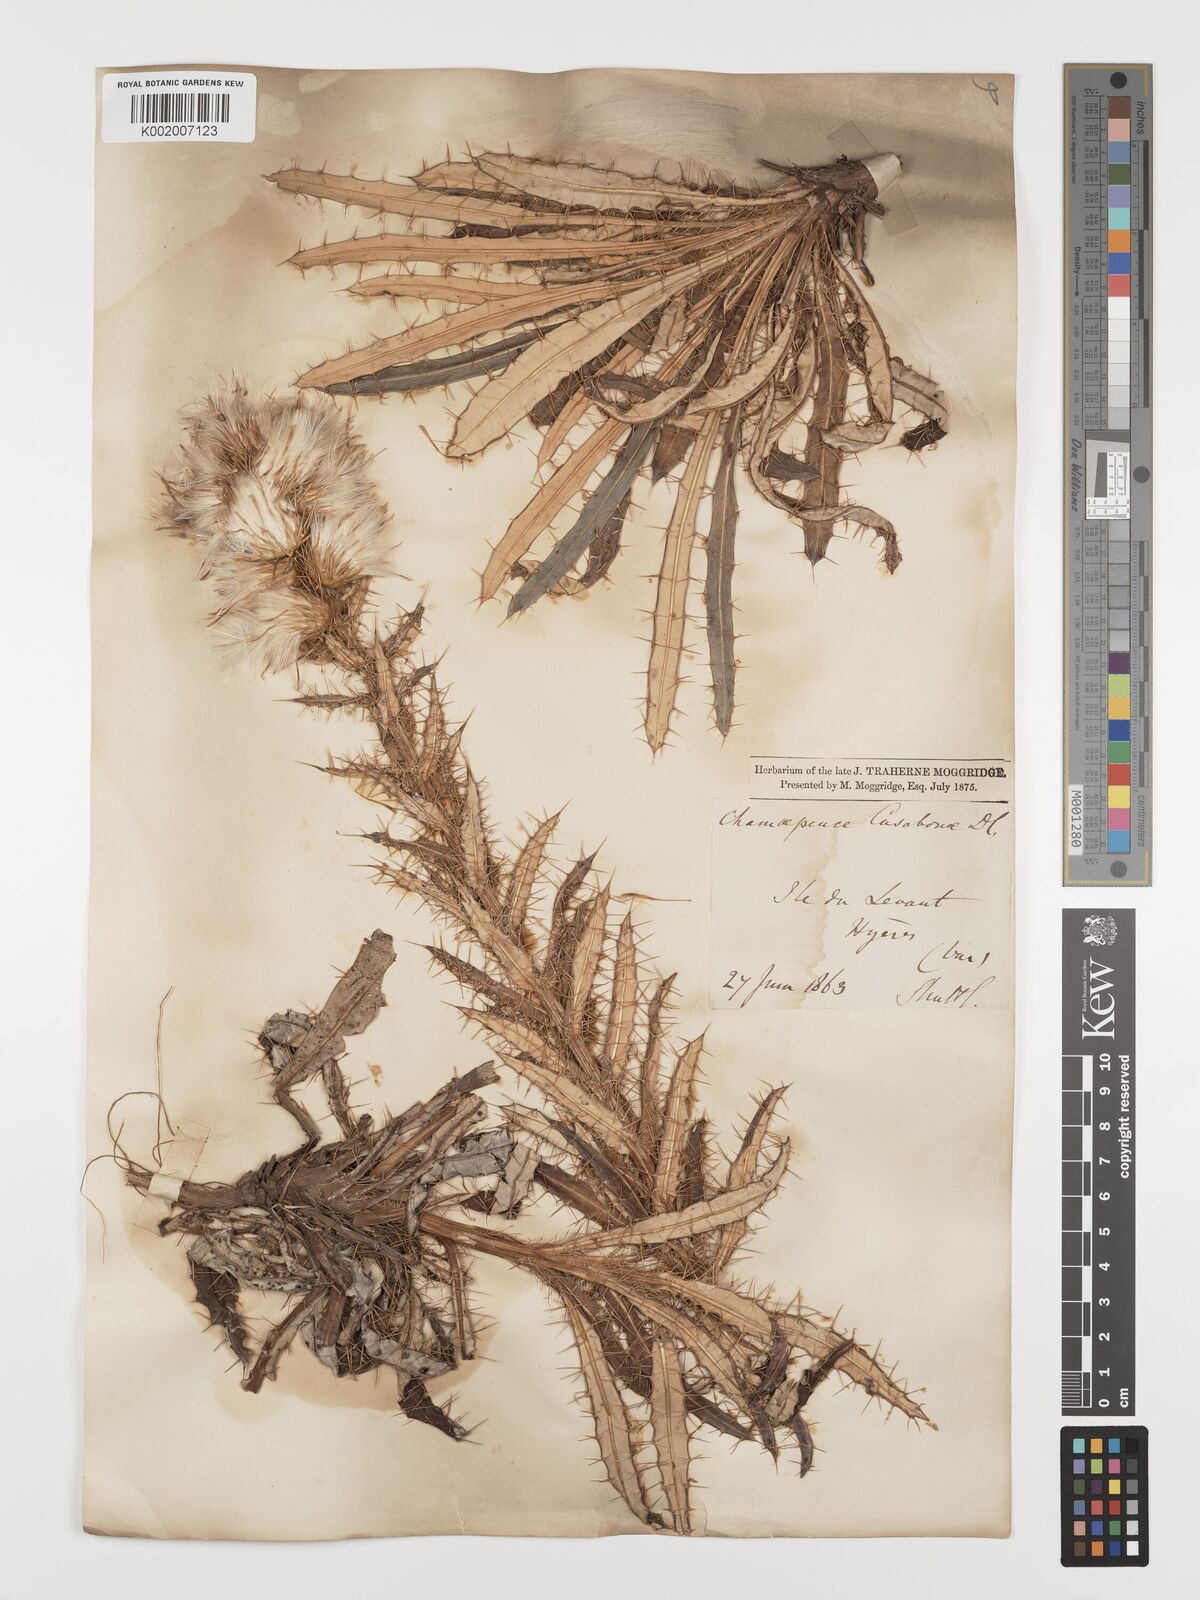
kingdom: Plantae
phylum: Tracheophyta
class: Magnoliopsida
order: Asterales
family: Asteraceae
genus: Ptilostemon
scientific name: Ptilostemon casabonae
